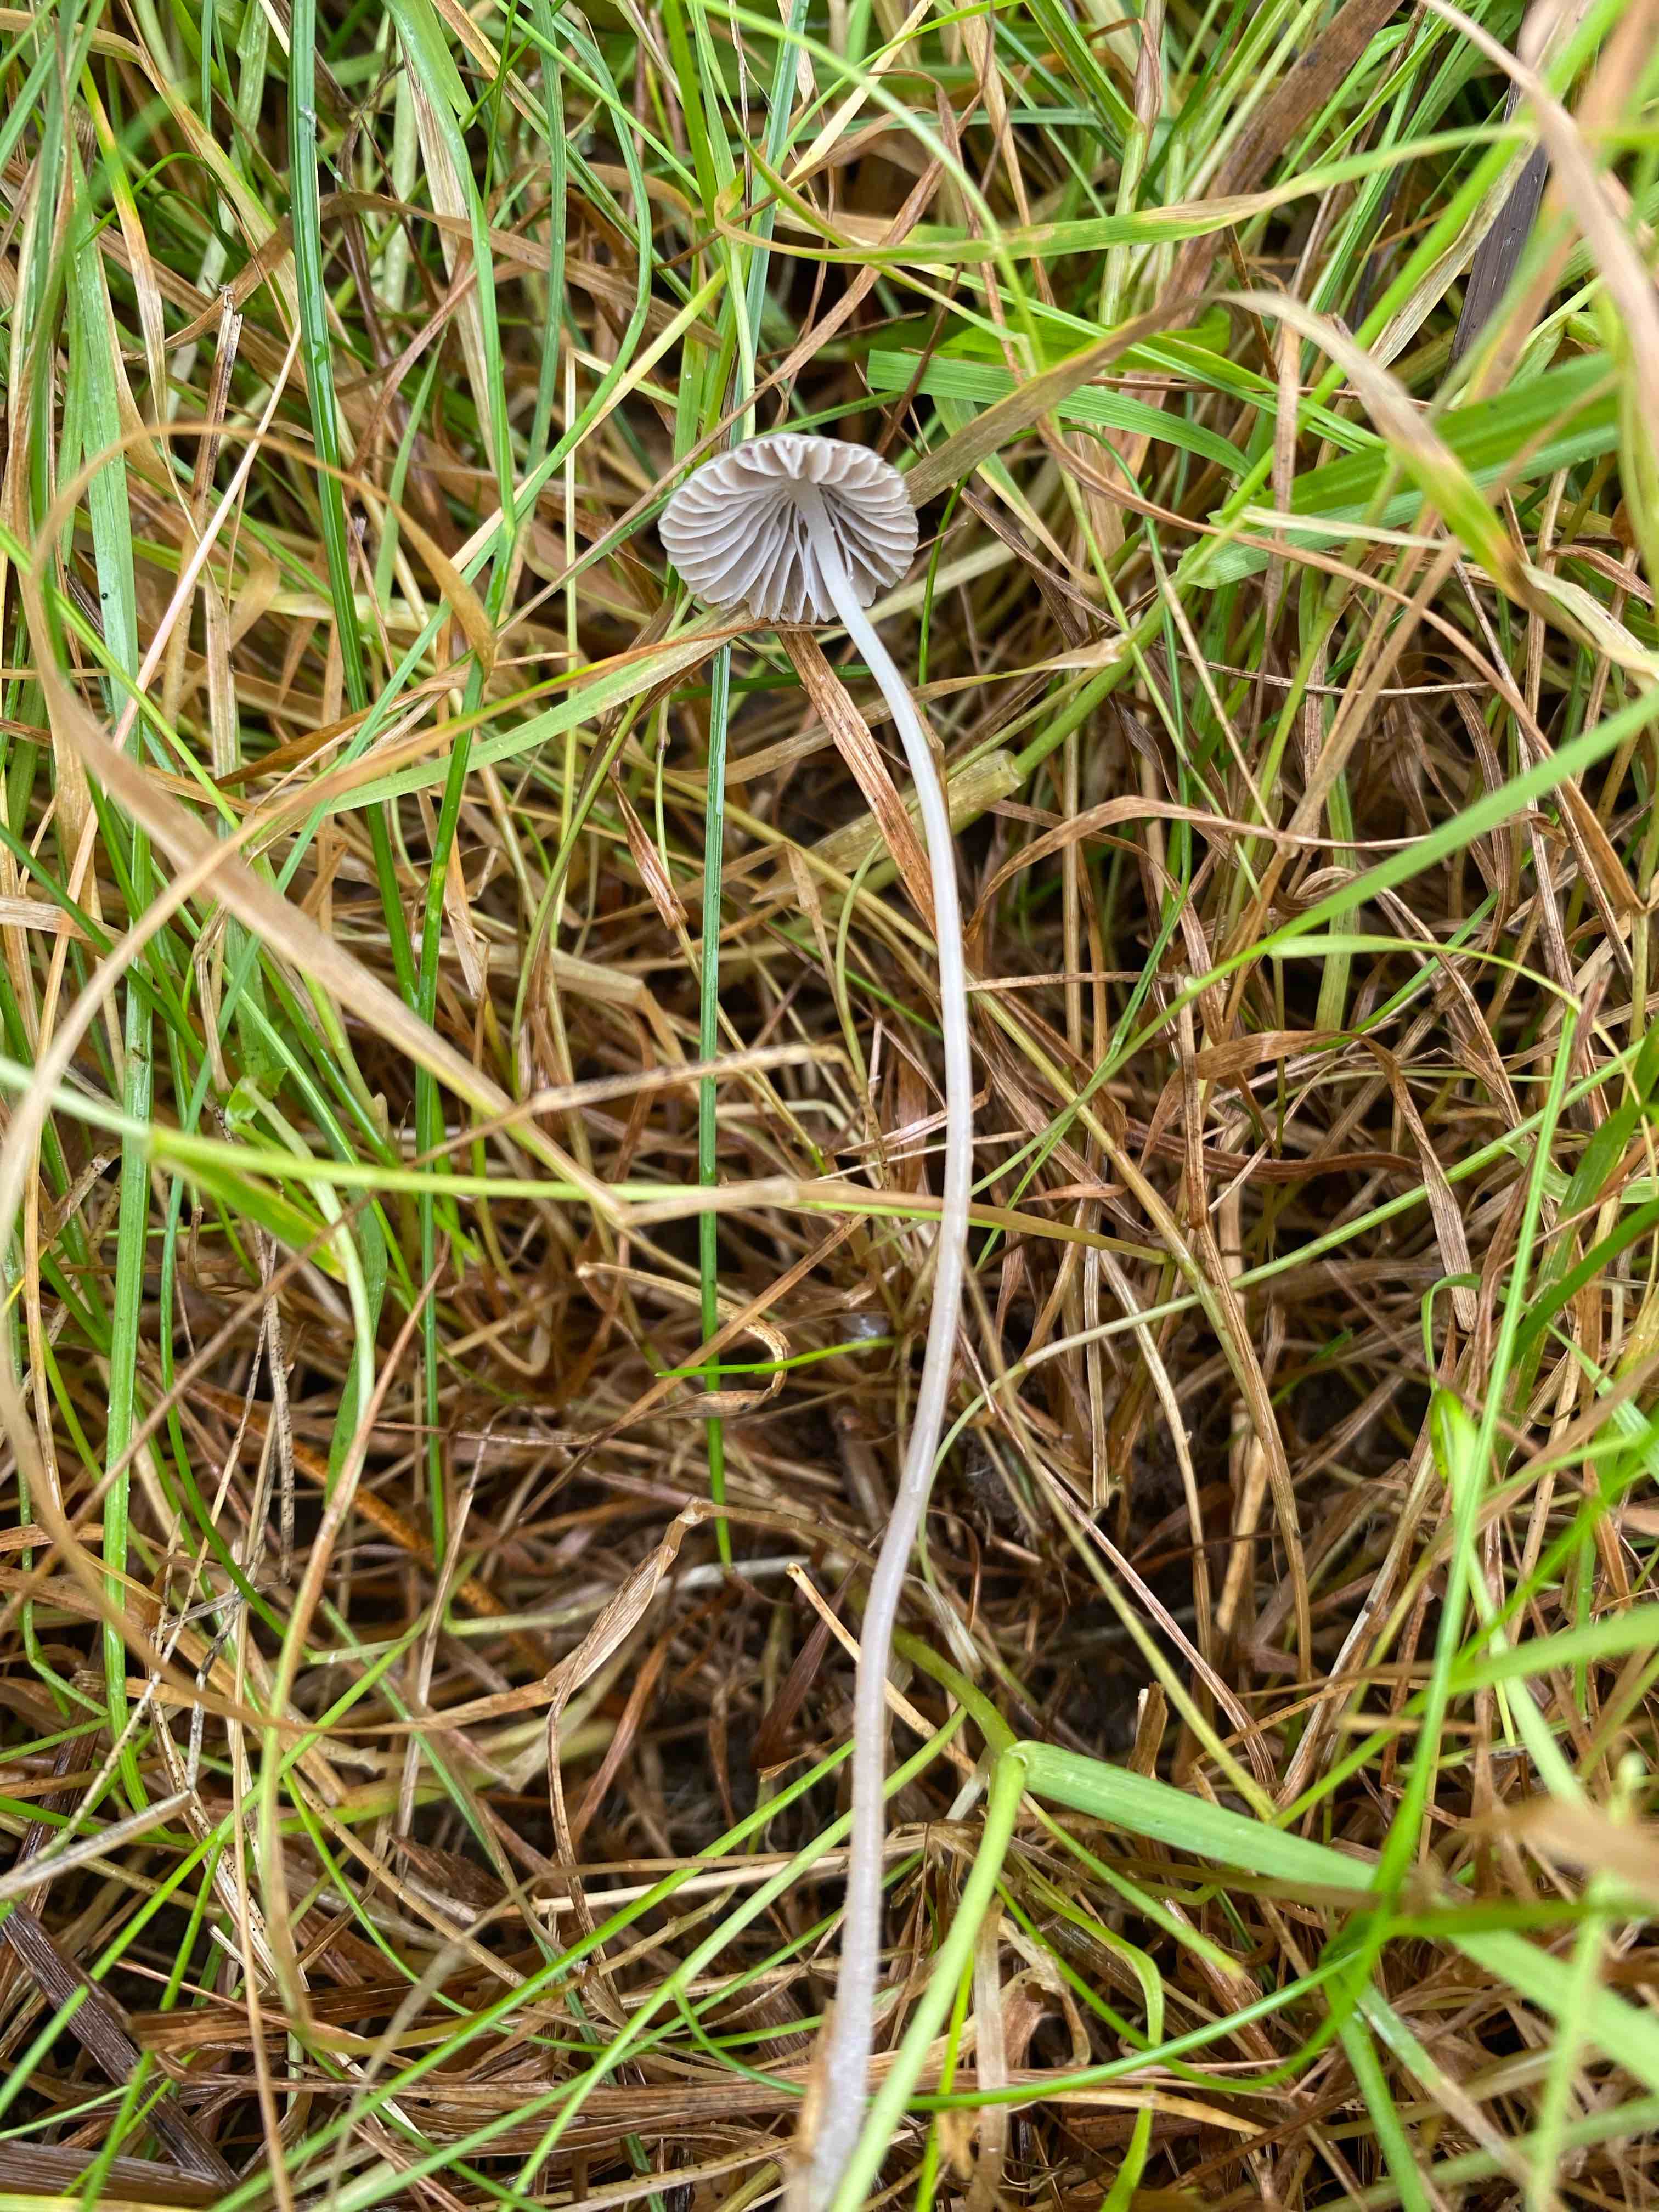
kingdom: Fungi
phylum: Basidiomycota
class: Agaricomycetes
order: Agaricales
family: Mycenaceae
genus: Mycena
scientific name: Mycena aetites
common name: plæne-huesvamp
